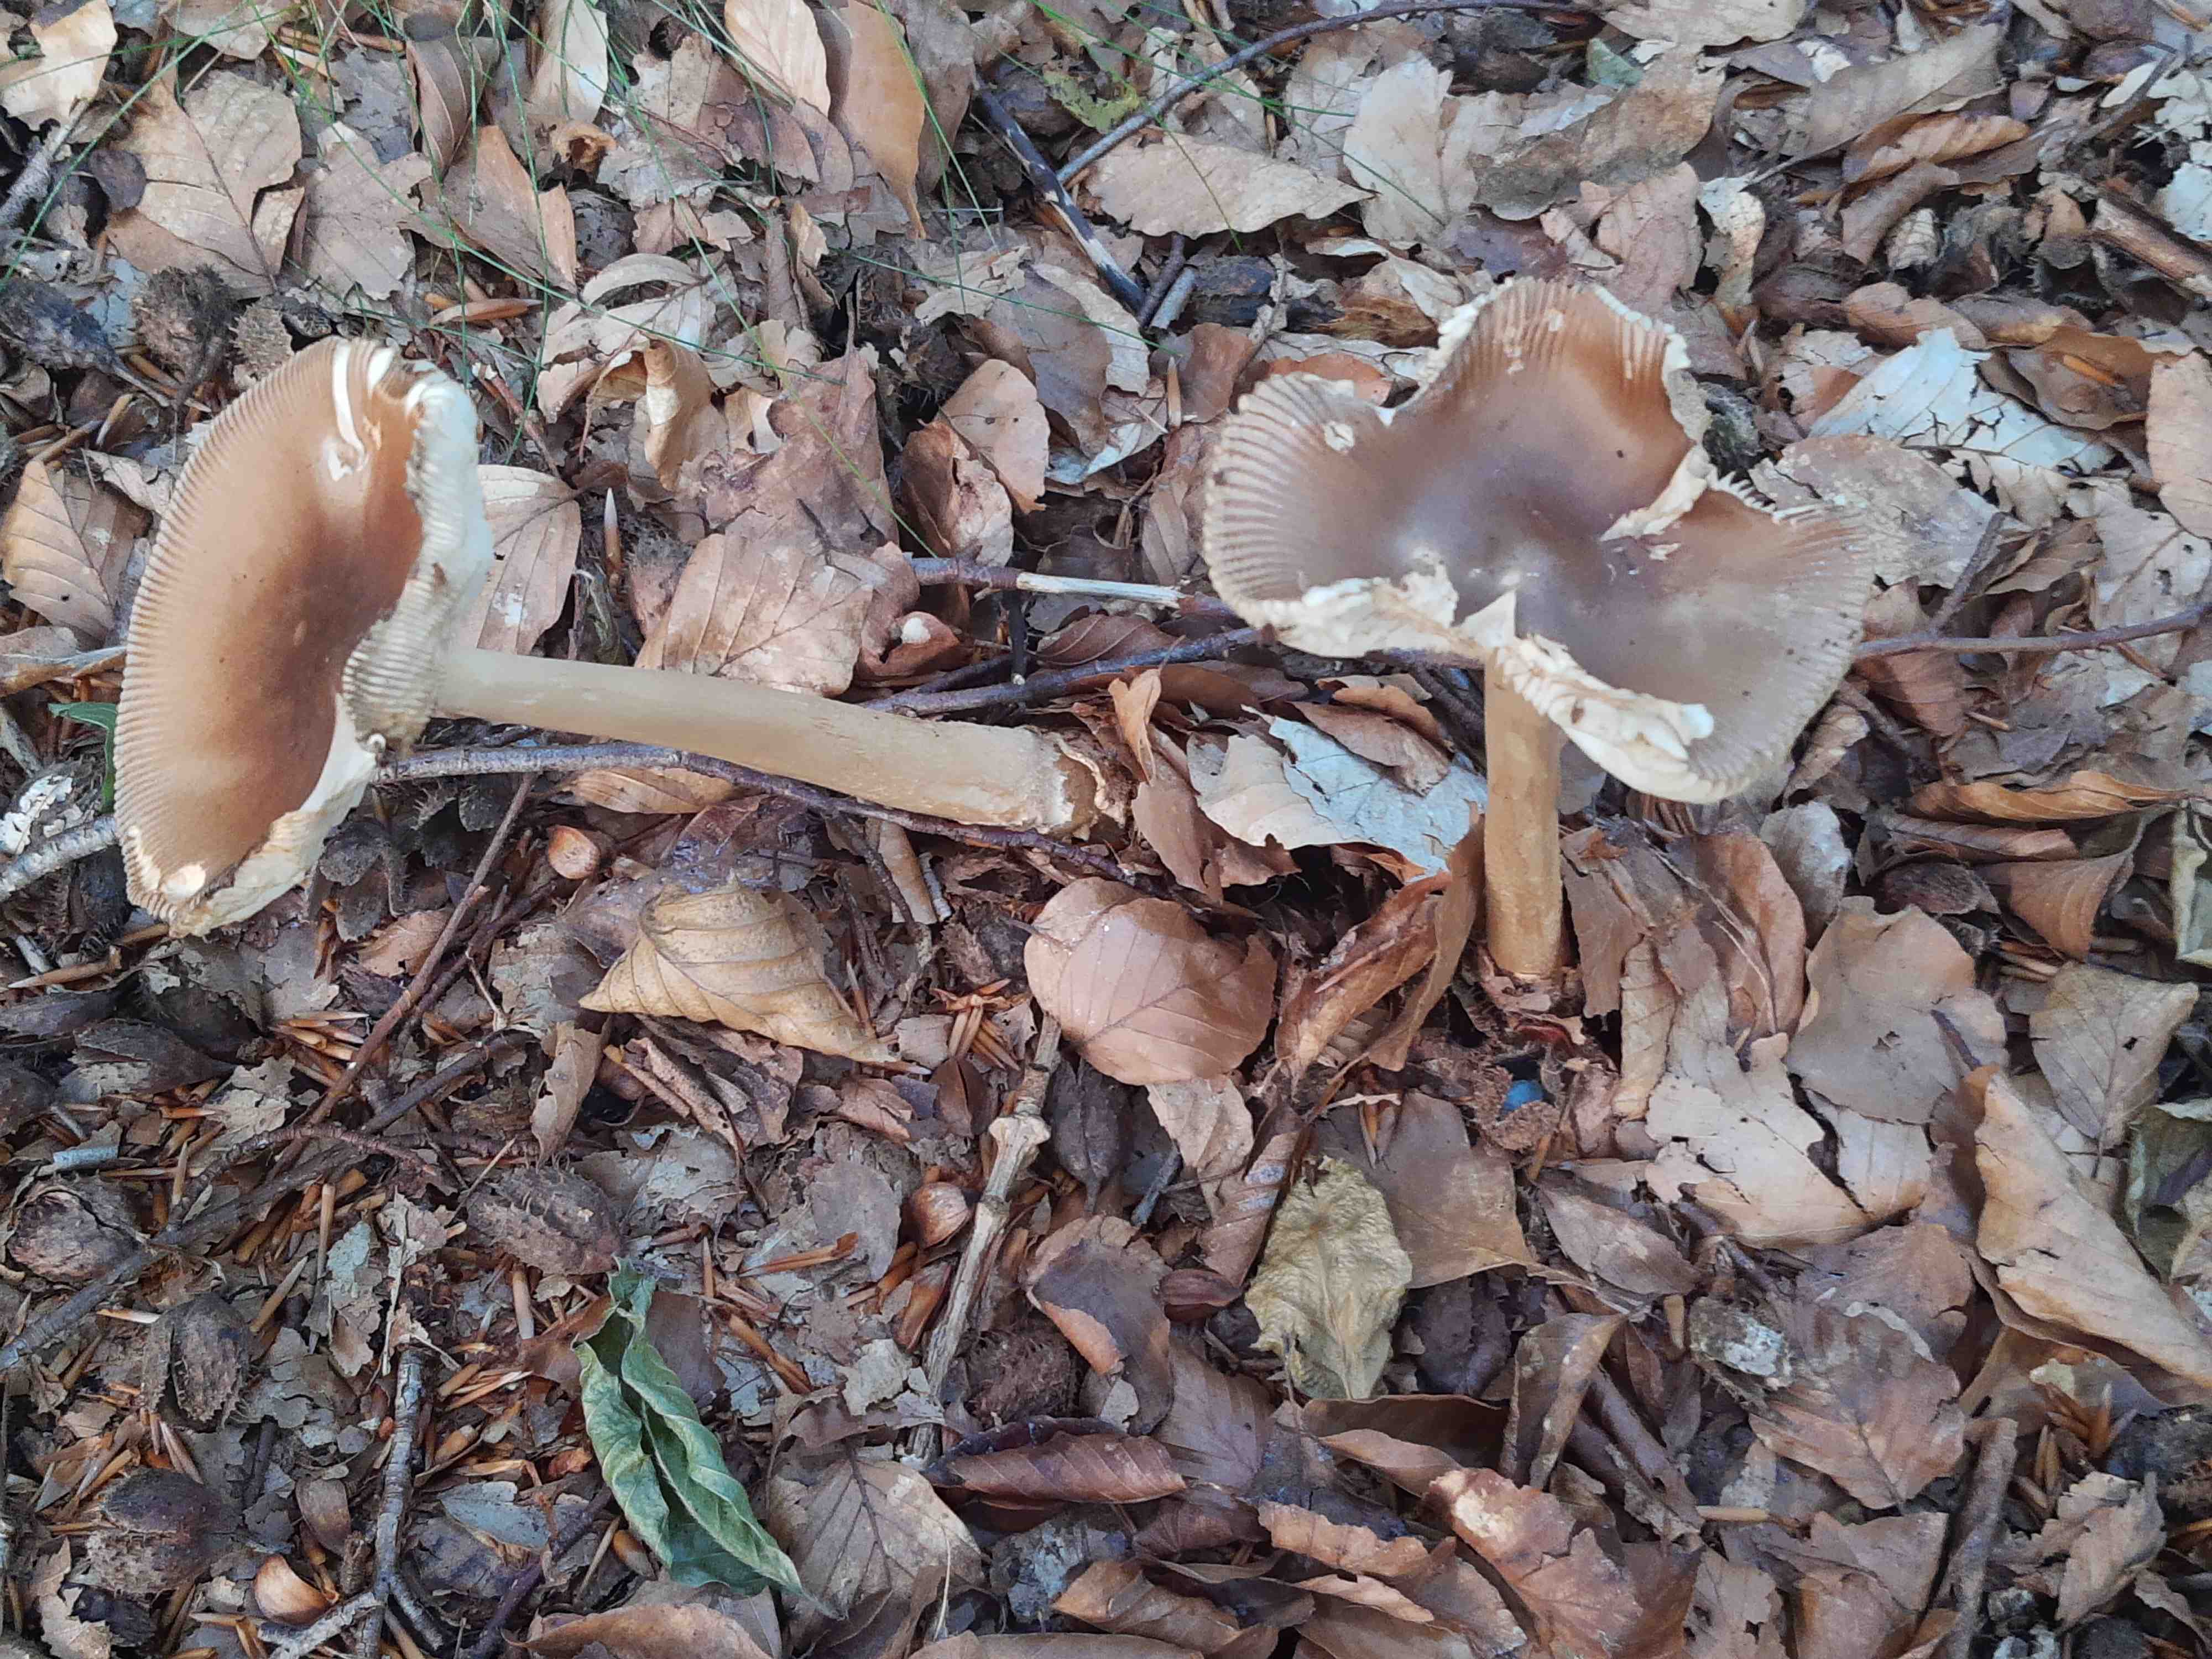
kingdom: Fungi
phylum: Basidiomycota
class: Agaricomycetes
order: Agaricales
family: Amanitaceae
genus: Amanita
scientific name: Amanita fulva
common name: brun kam-fluesvamp
